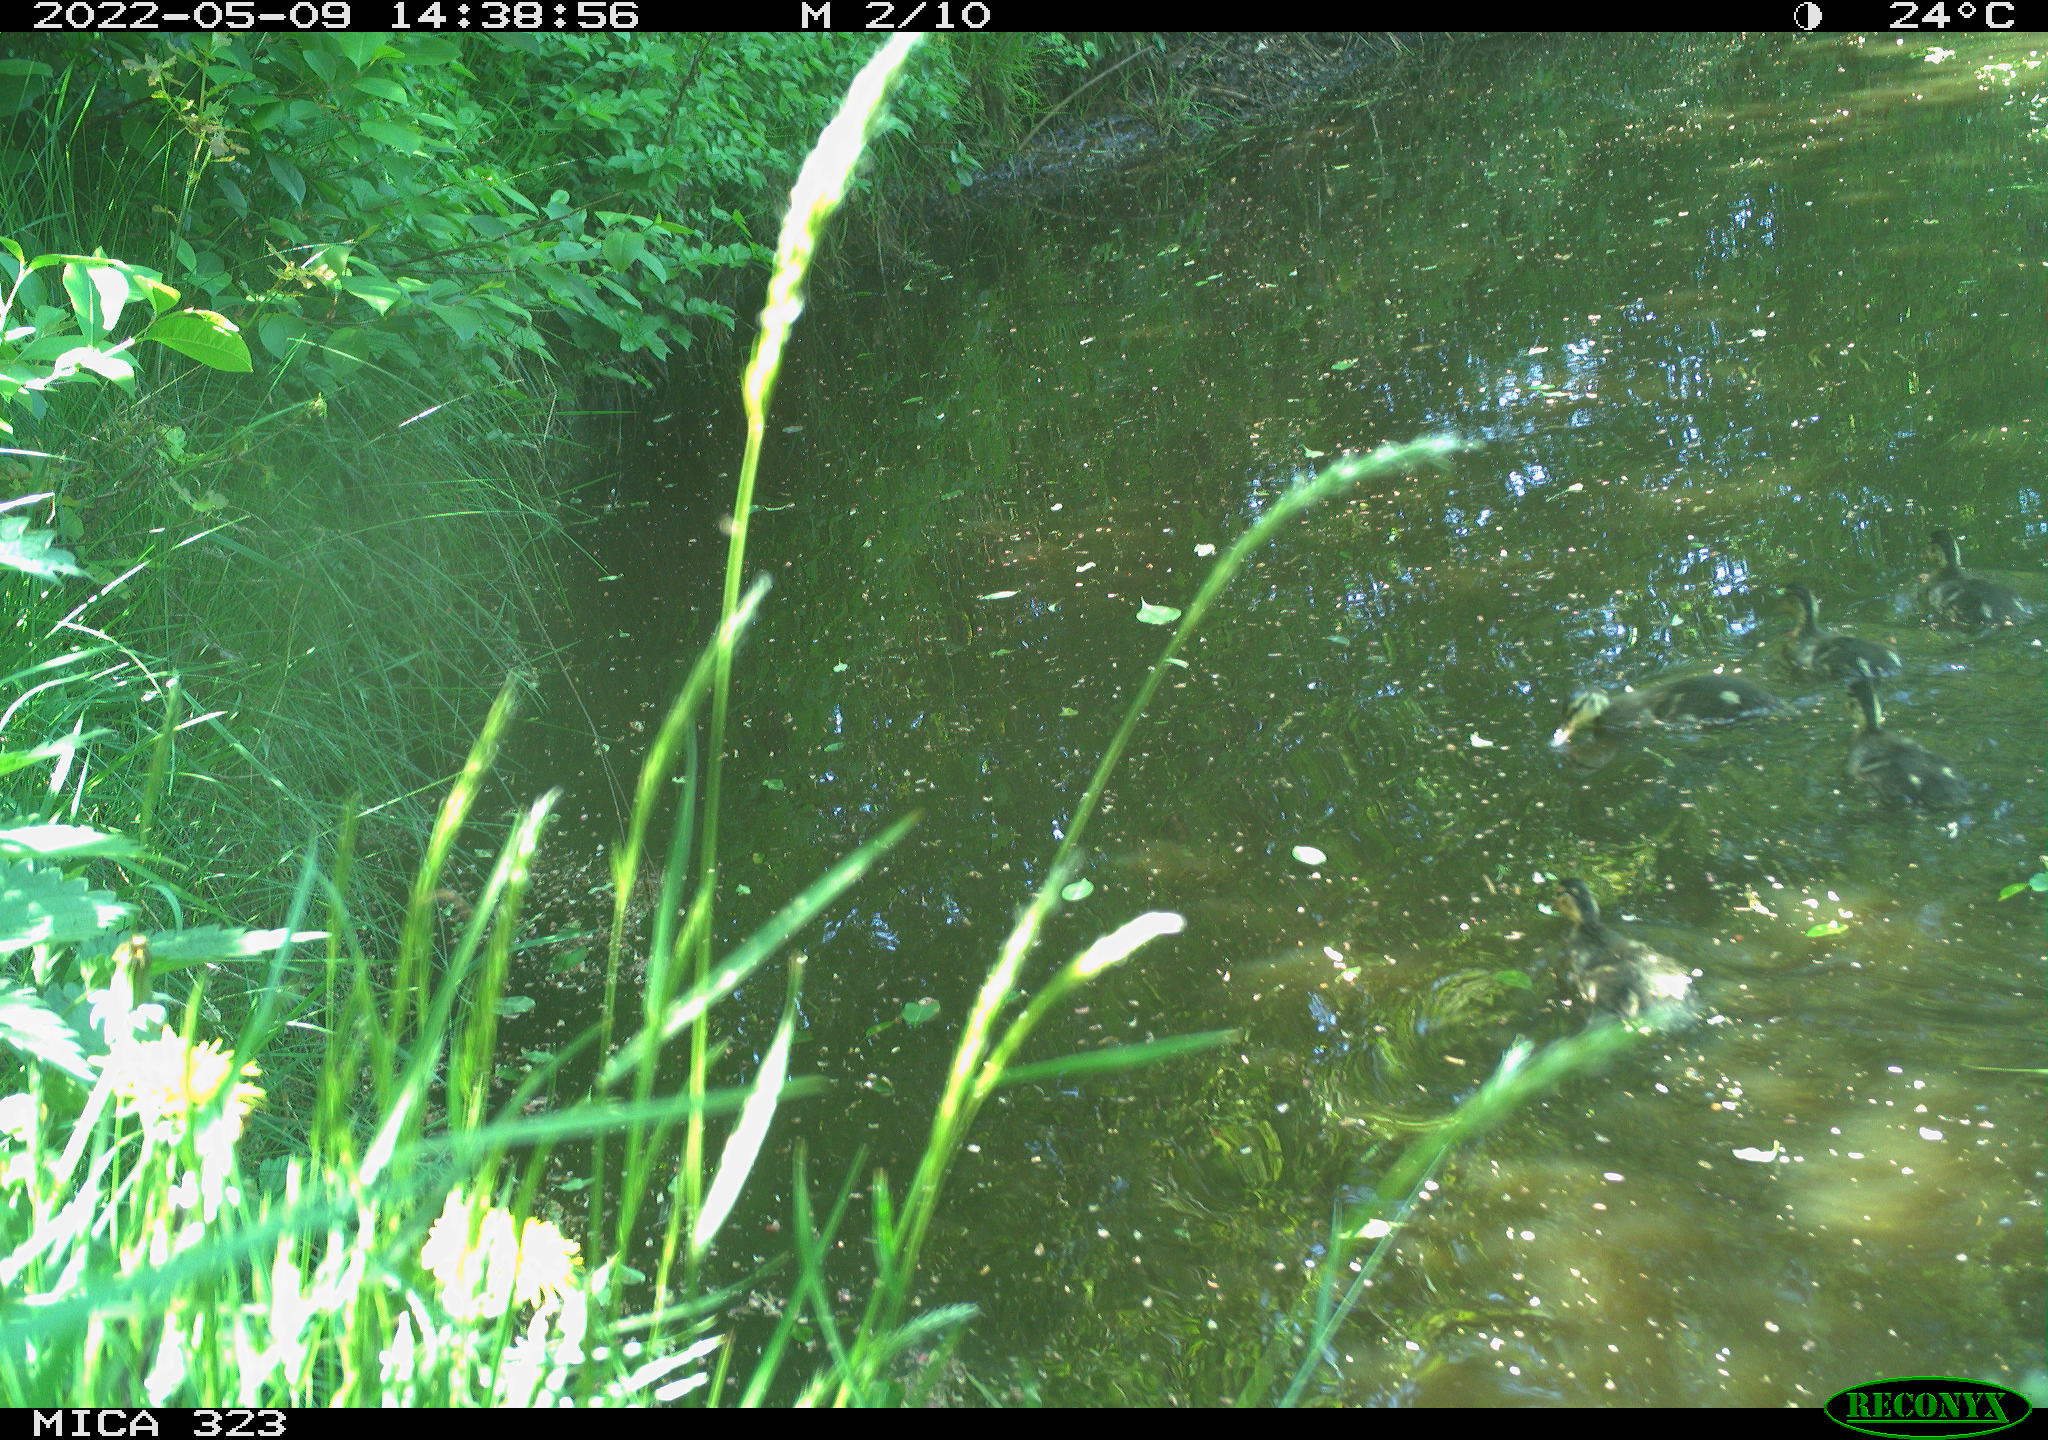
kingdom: Animalia
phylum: Chordata
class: Aves
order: Anseriformes
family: Anatidae
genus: Anas
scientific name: Anas platyrhynchos
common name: Mallard
